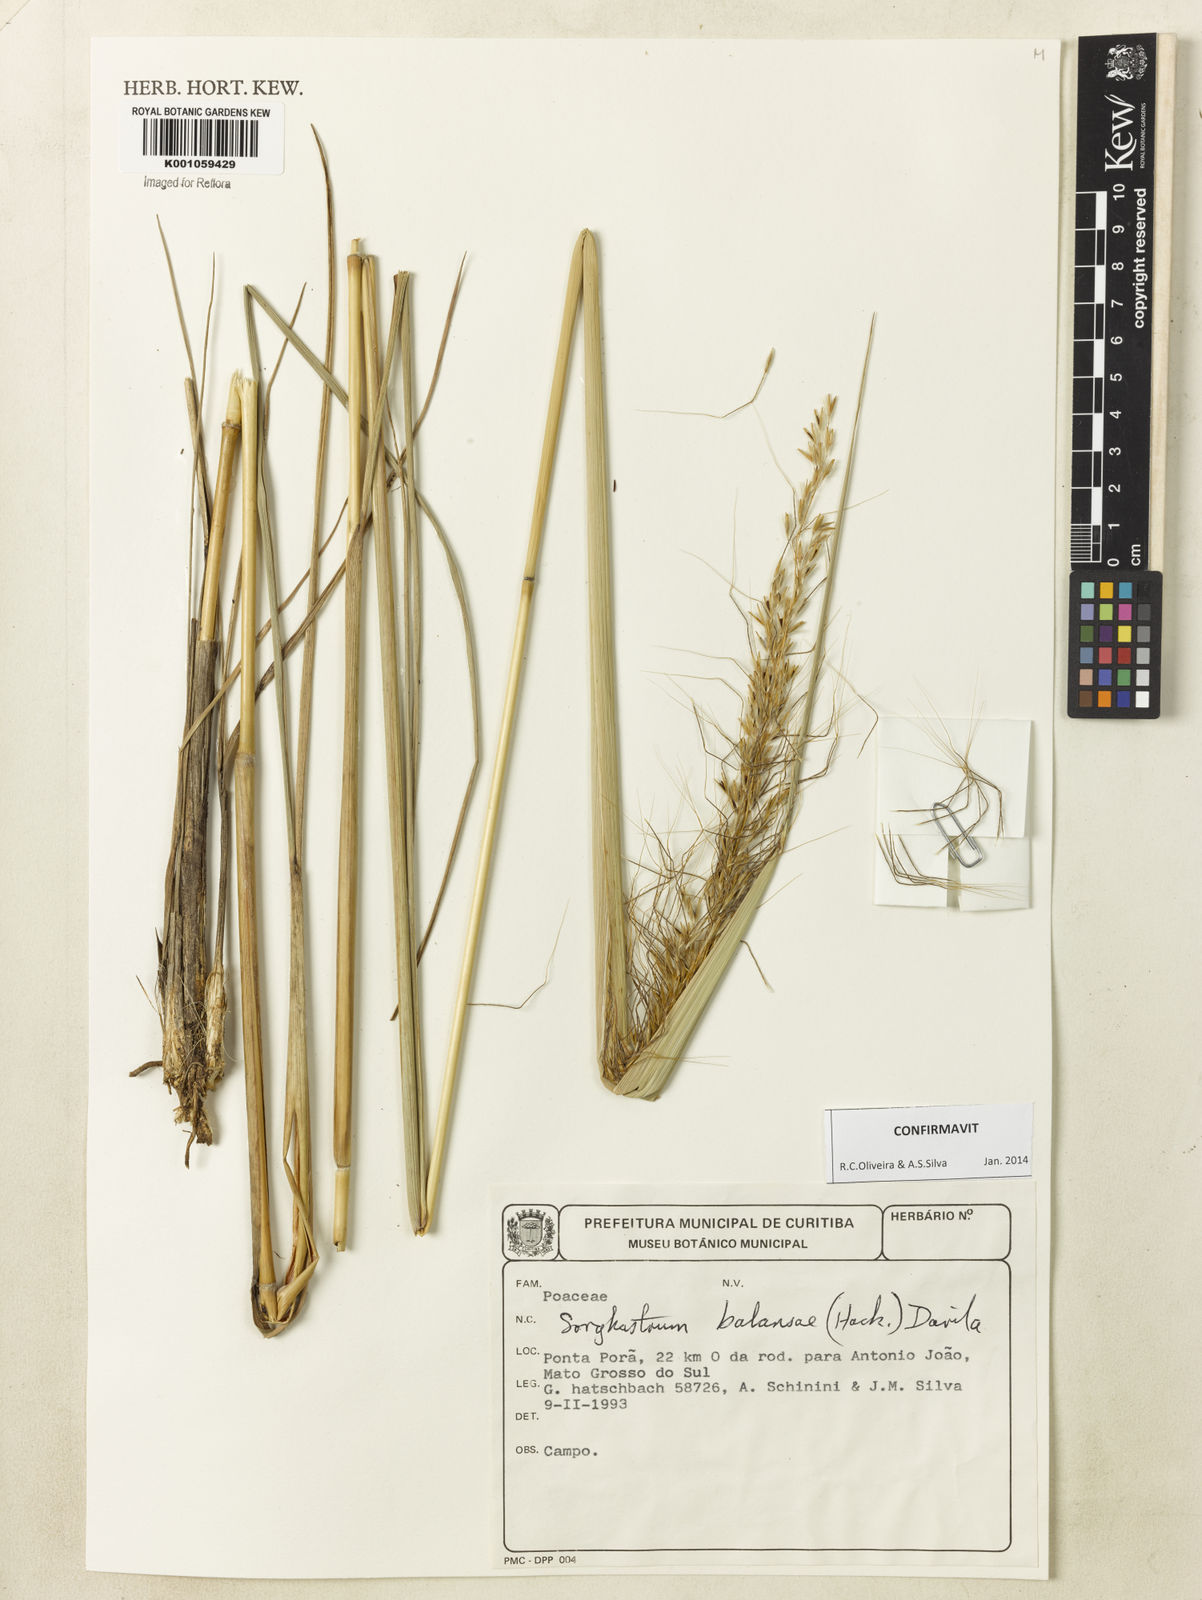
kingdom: Plantae
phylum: Tracheophyta
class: Liliopsida
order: Poales
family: Poaceae
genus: Sorghastrum
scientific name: Sorghastrum
